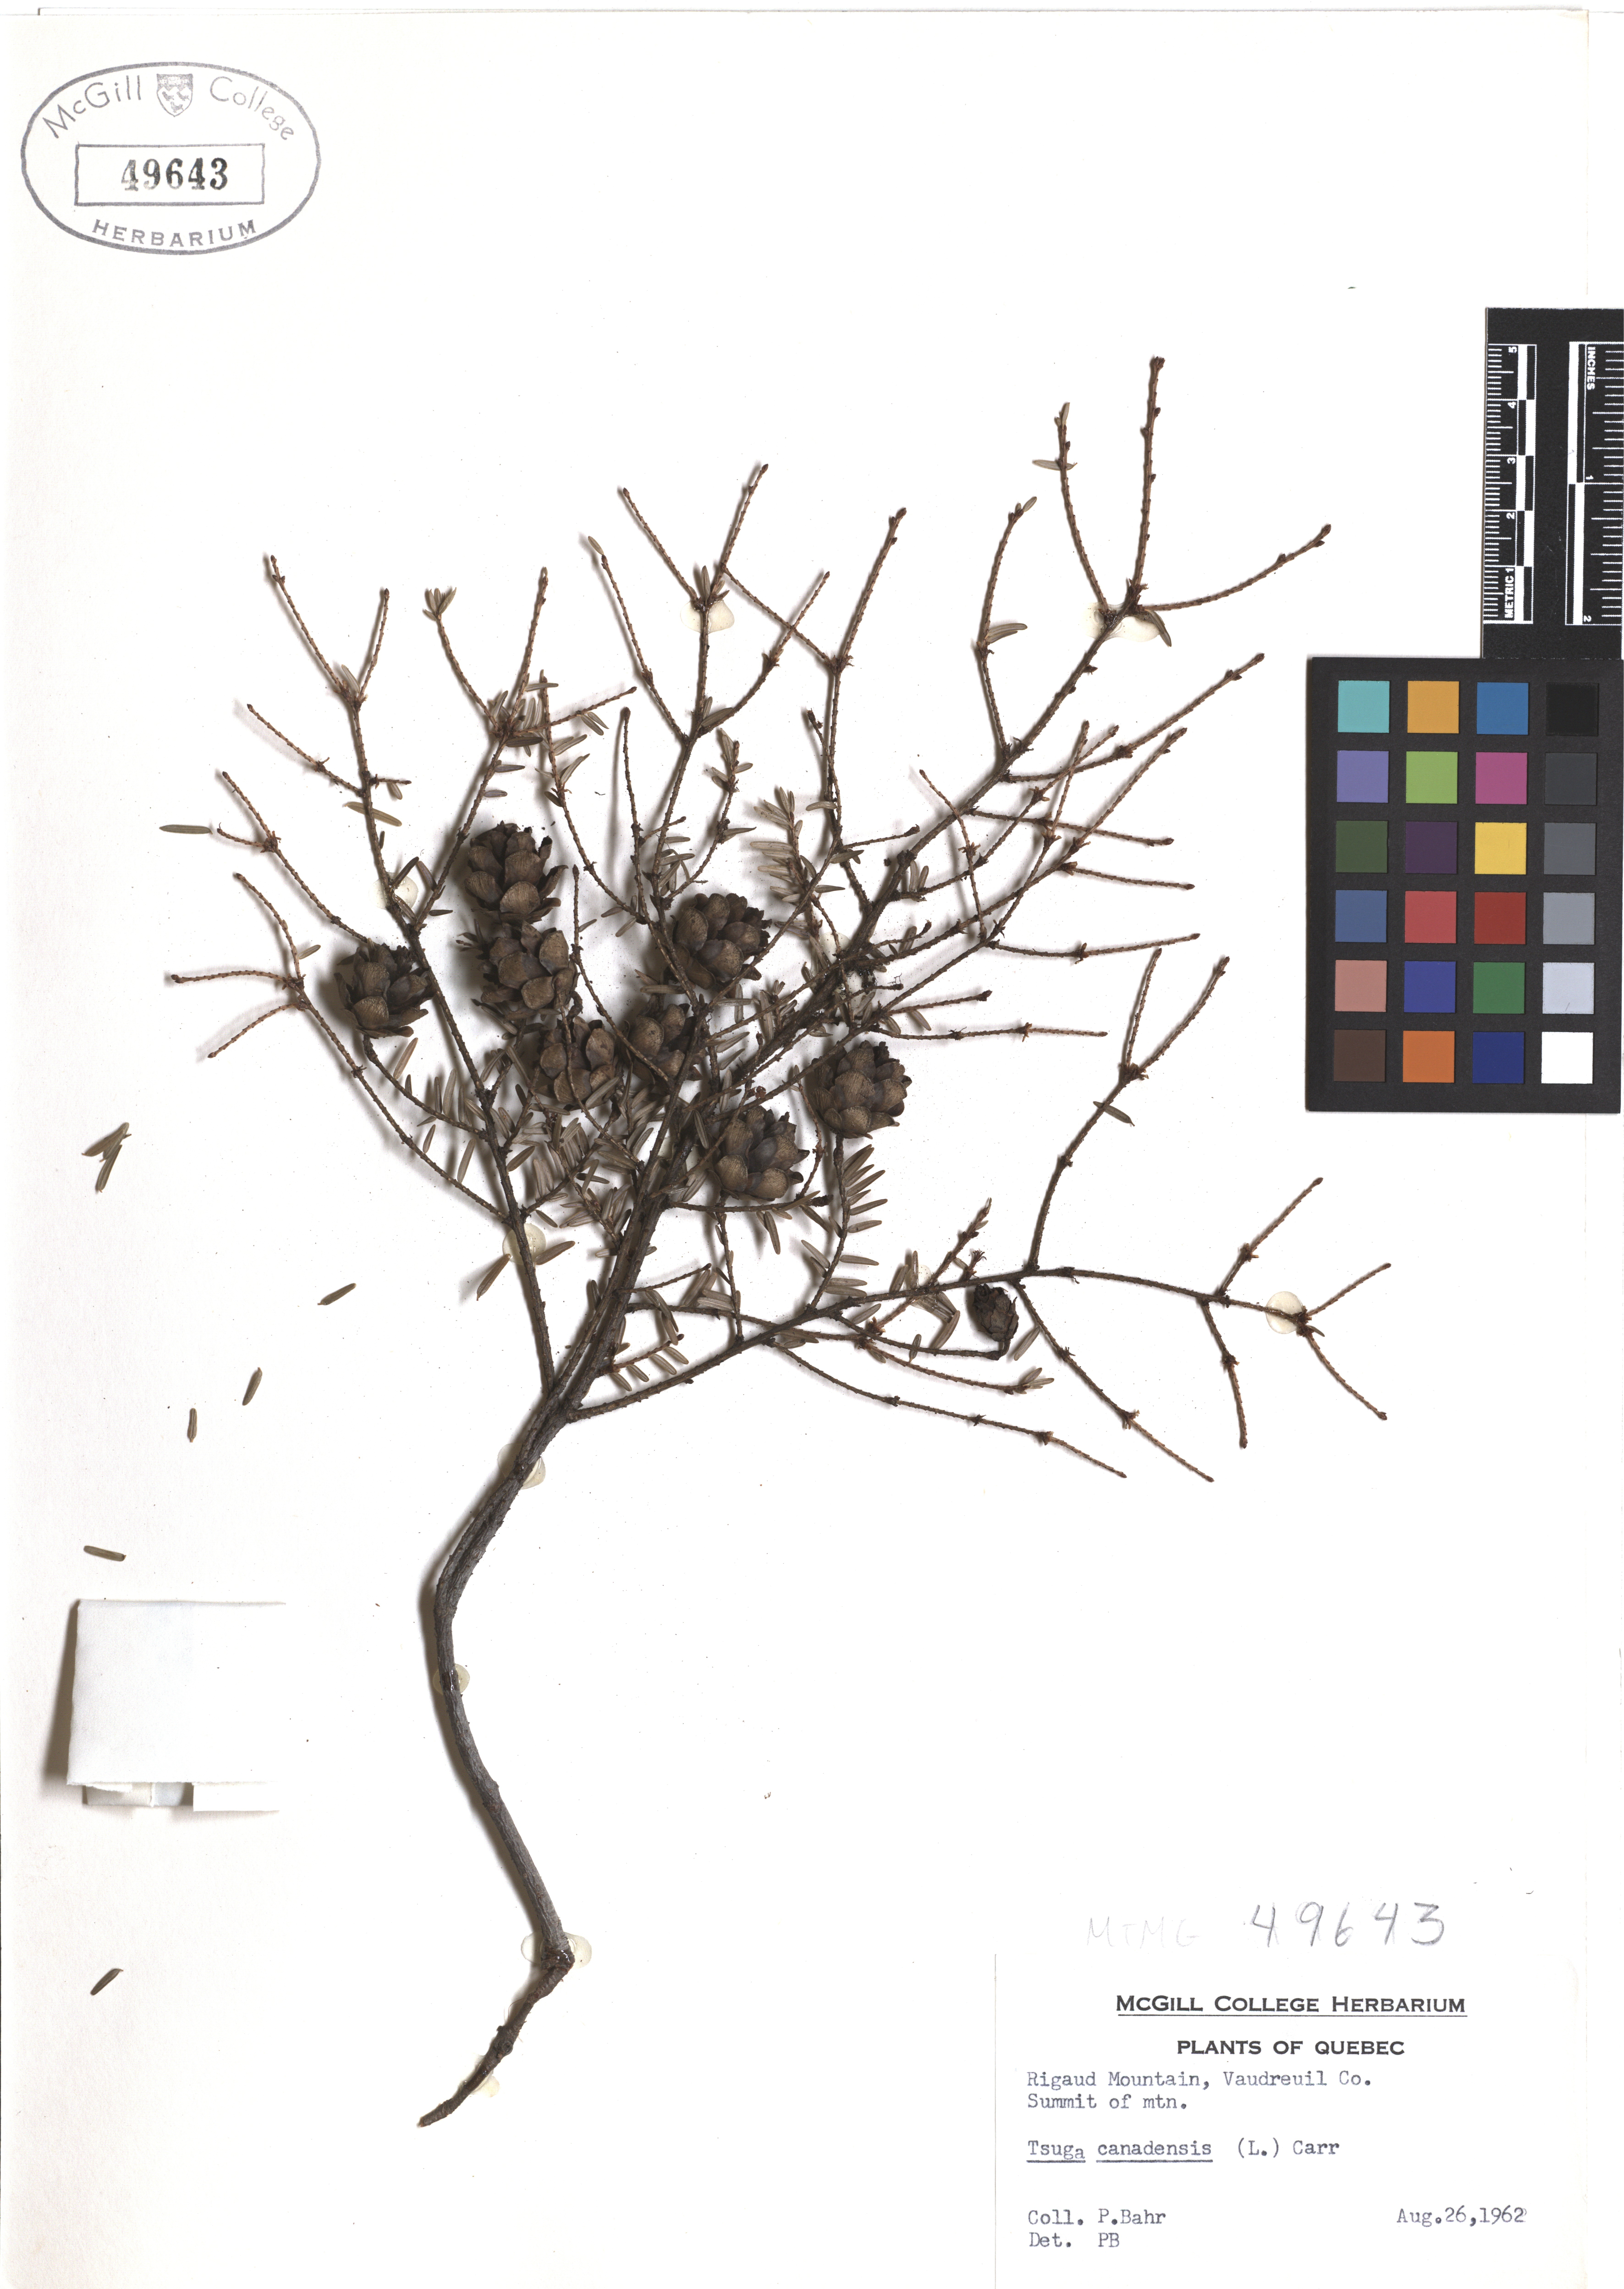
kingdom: Plantae
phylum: Tracheophyta
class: Pinopsida
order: Pinales
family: Pinaceae
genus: Tsuga
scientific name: Tsuga canadensis
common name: Eastern hemlock
